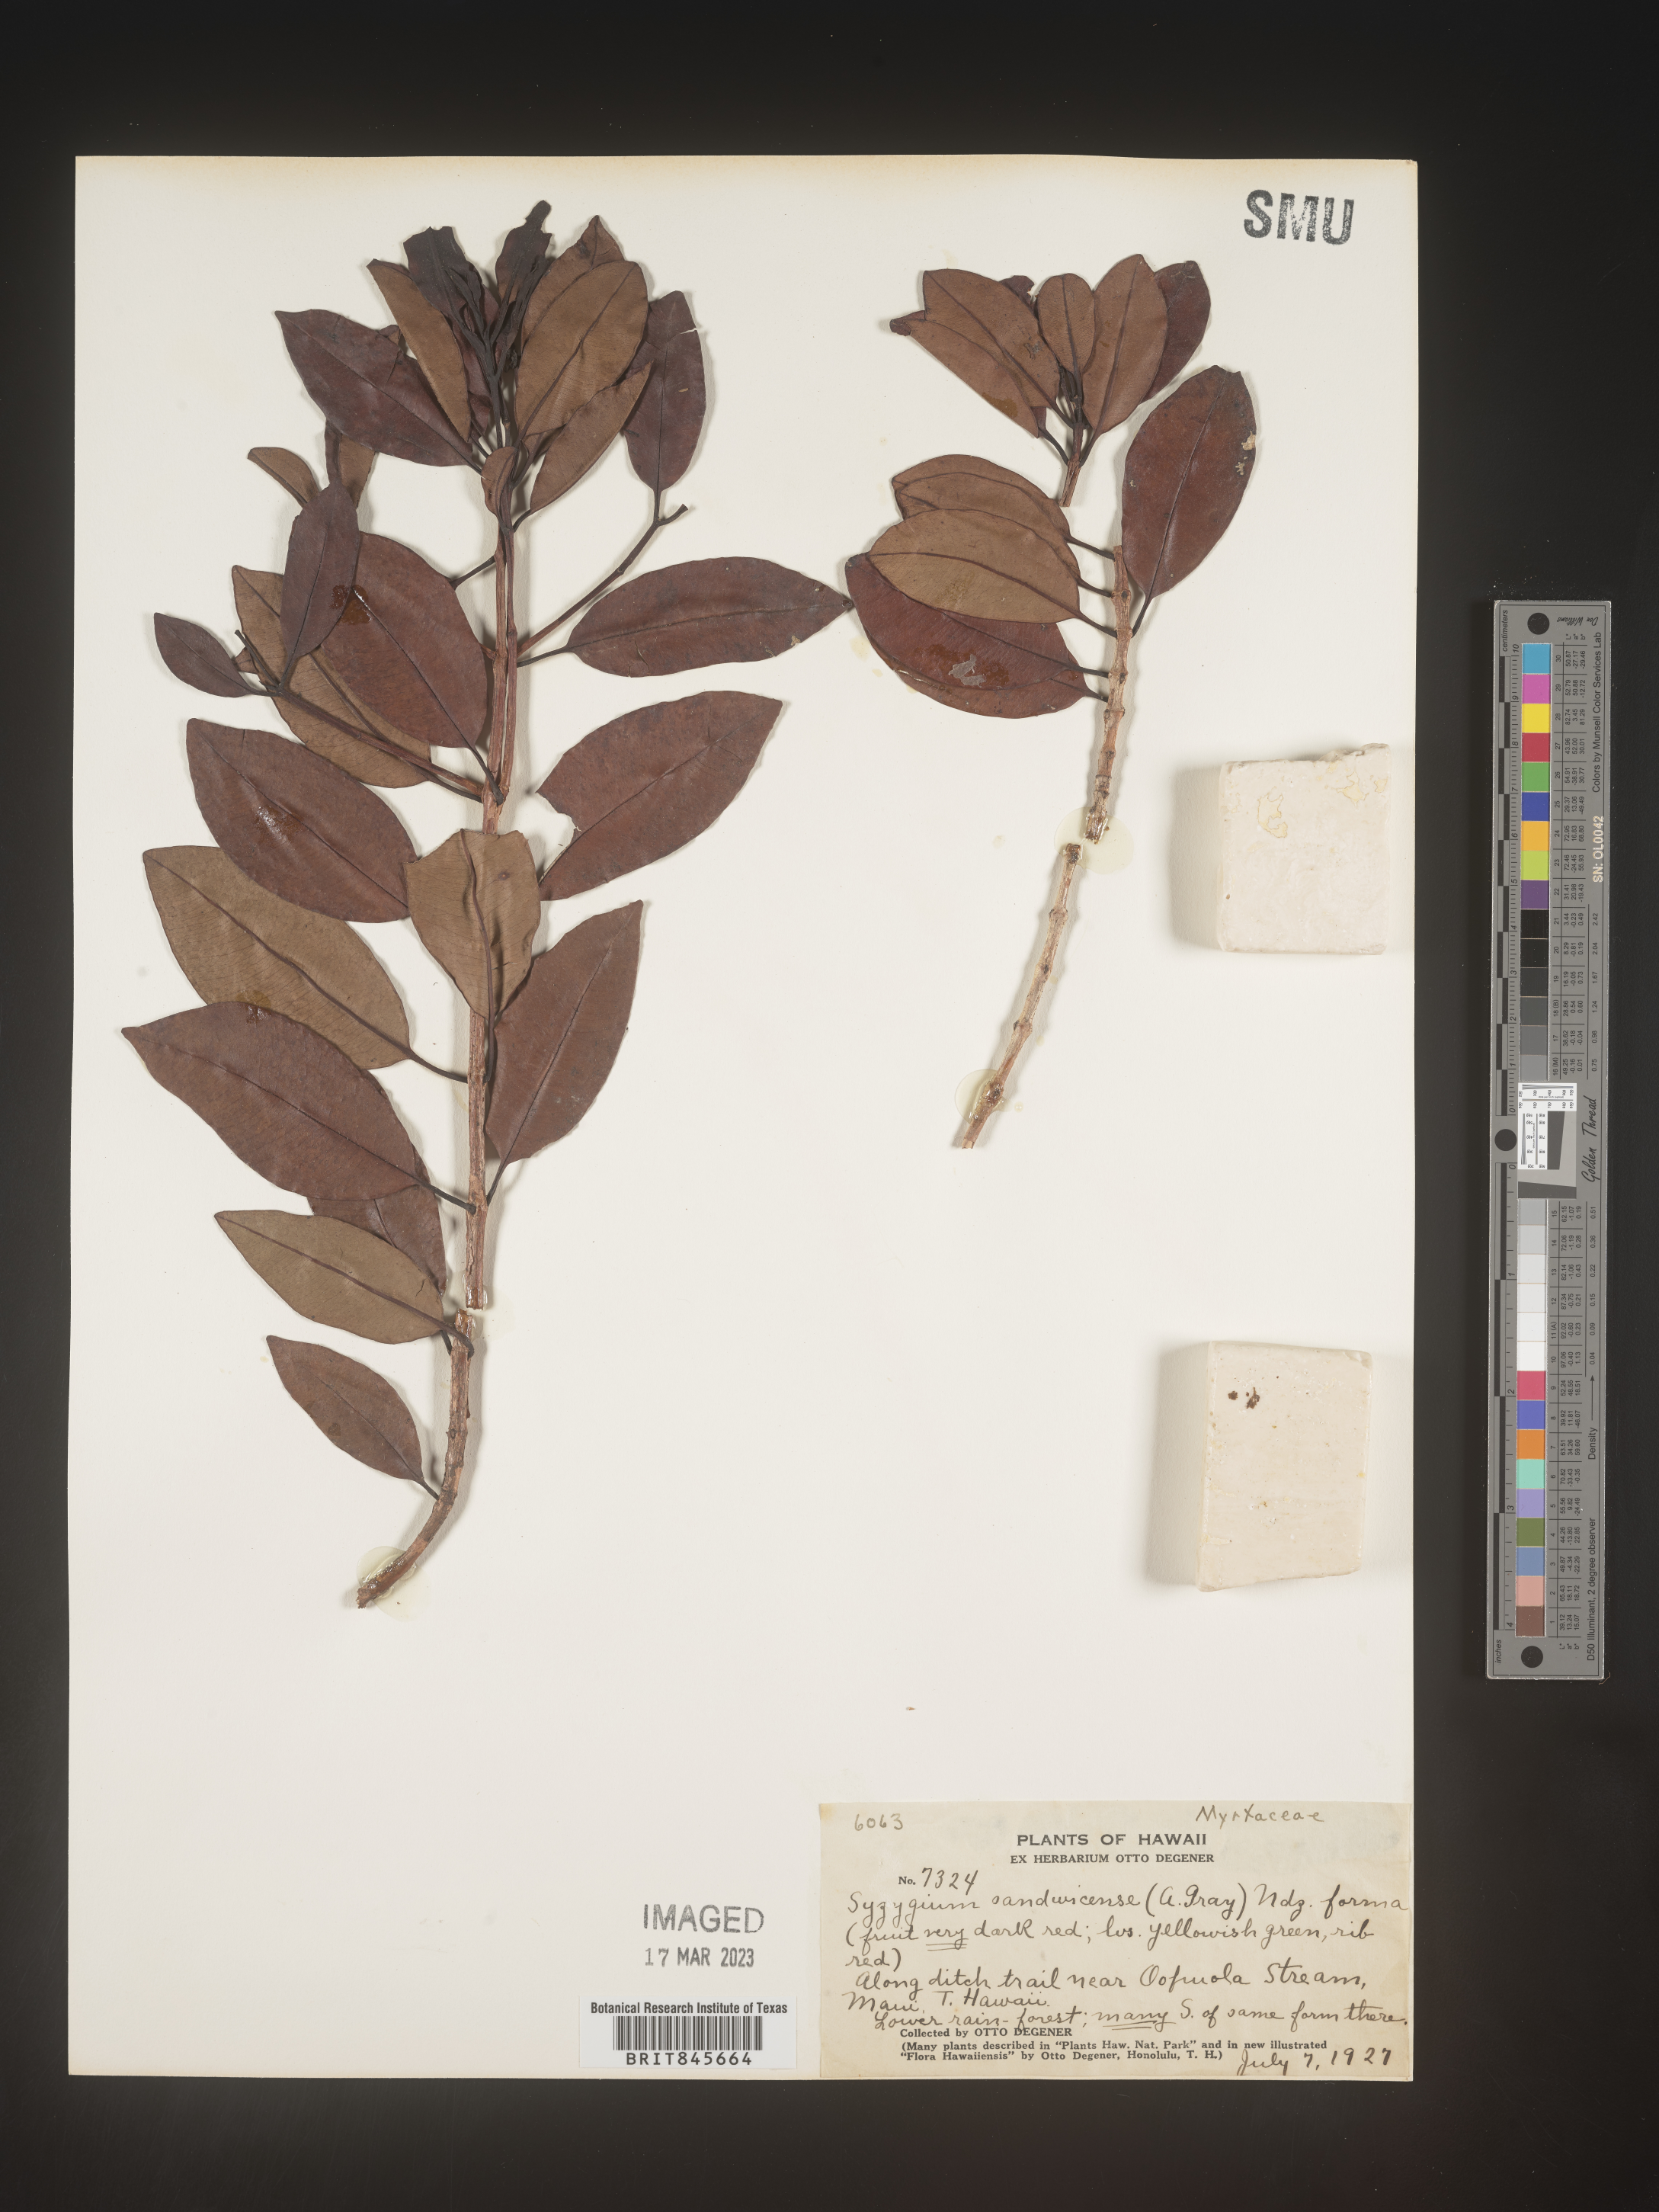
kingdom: Plantae
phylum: Tracheophyta
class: Magnoliopsida
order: Myrtales
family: Myrtaceae
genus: Syzygium
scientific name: Syzygium
